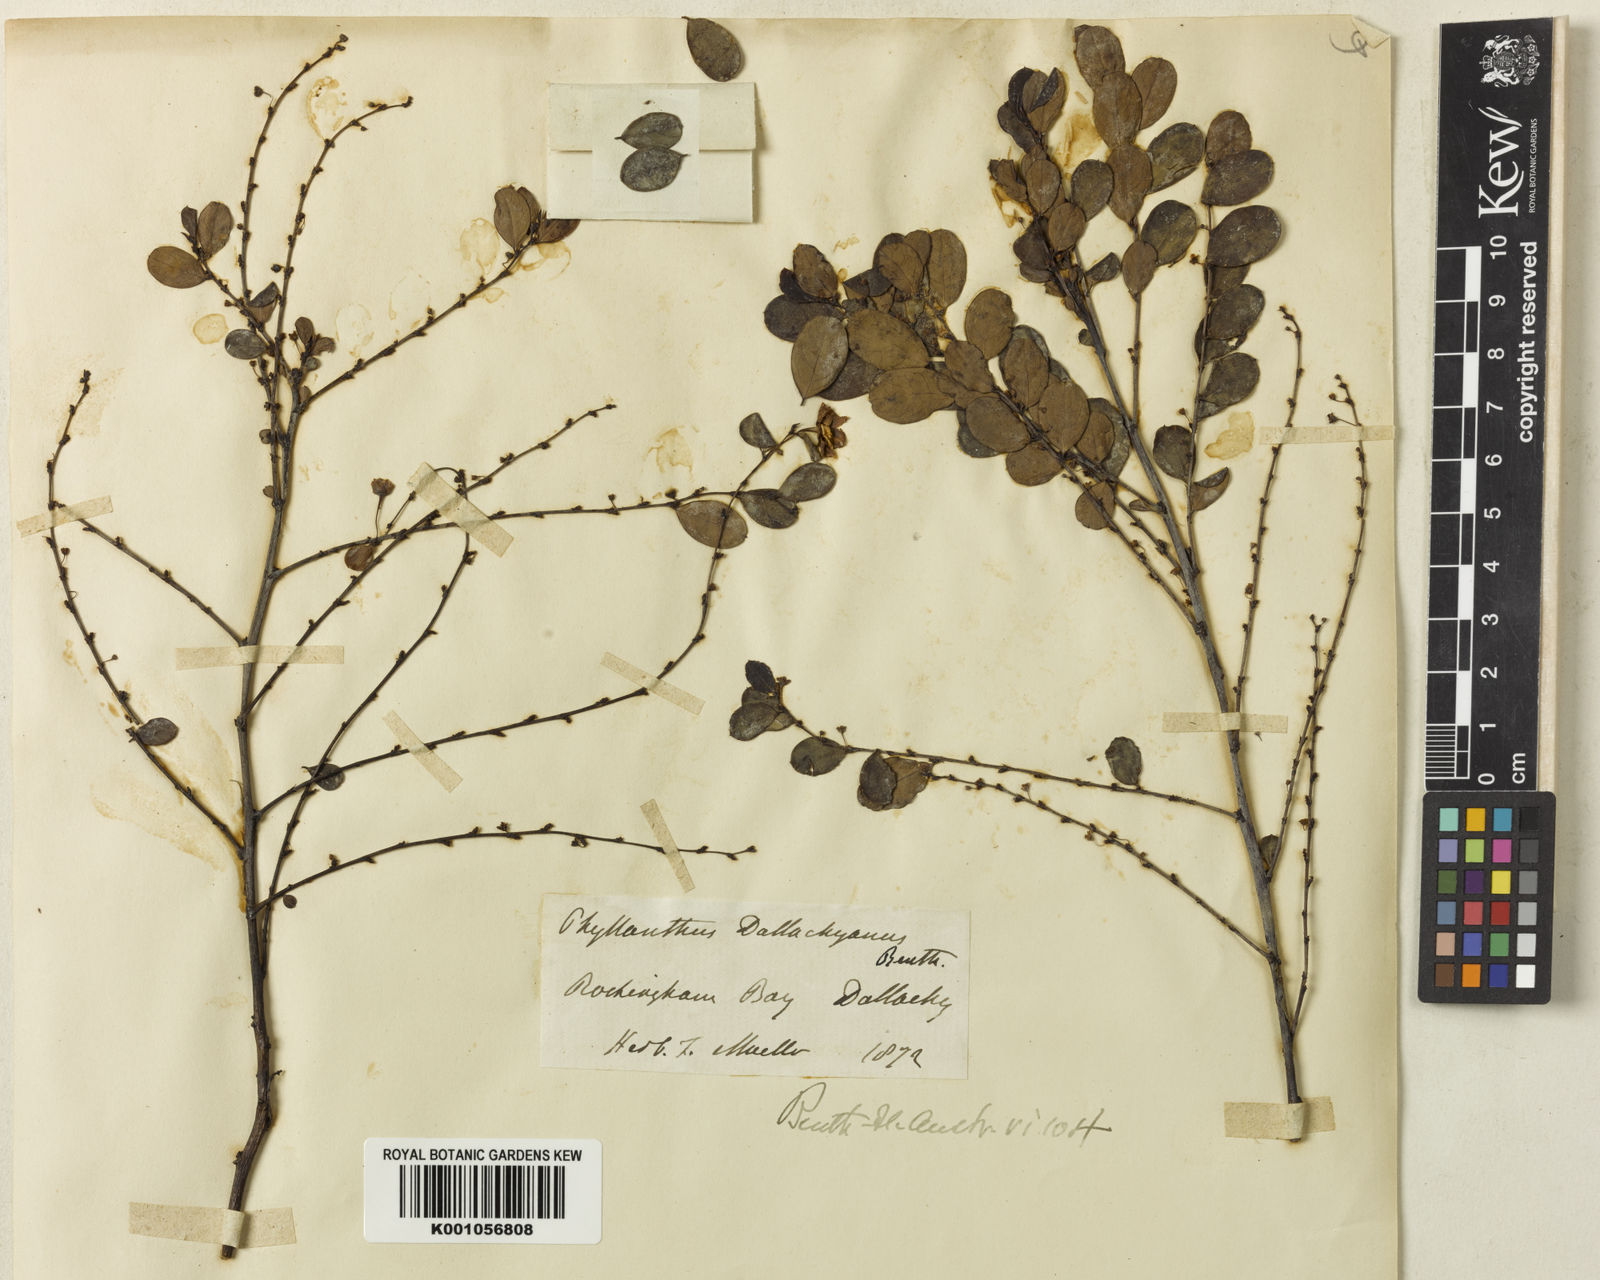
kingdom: Plantae
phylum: Tracheophyta
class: Magnoliopsida
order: Malpighiales
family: Phyllanthaceae
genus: Phyllanthus
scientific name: Phyllanthus dallachyanus
